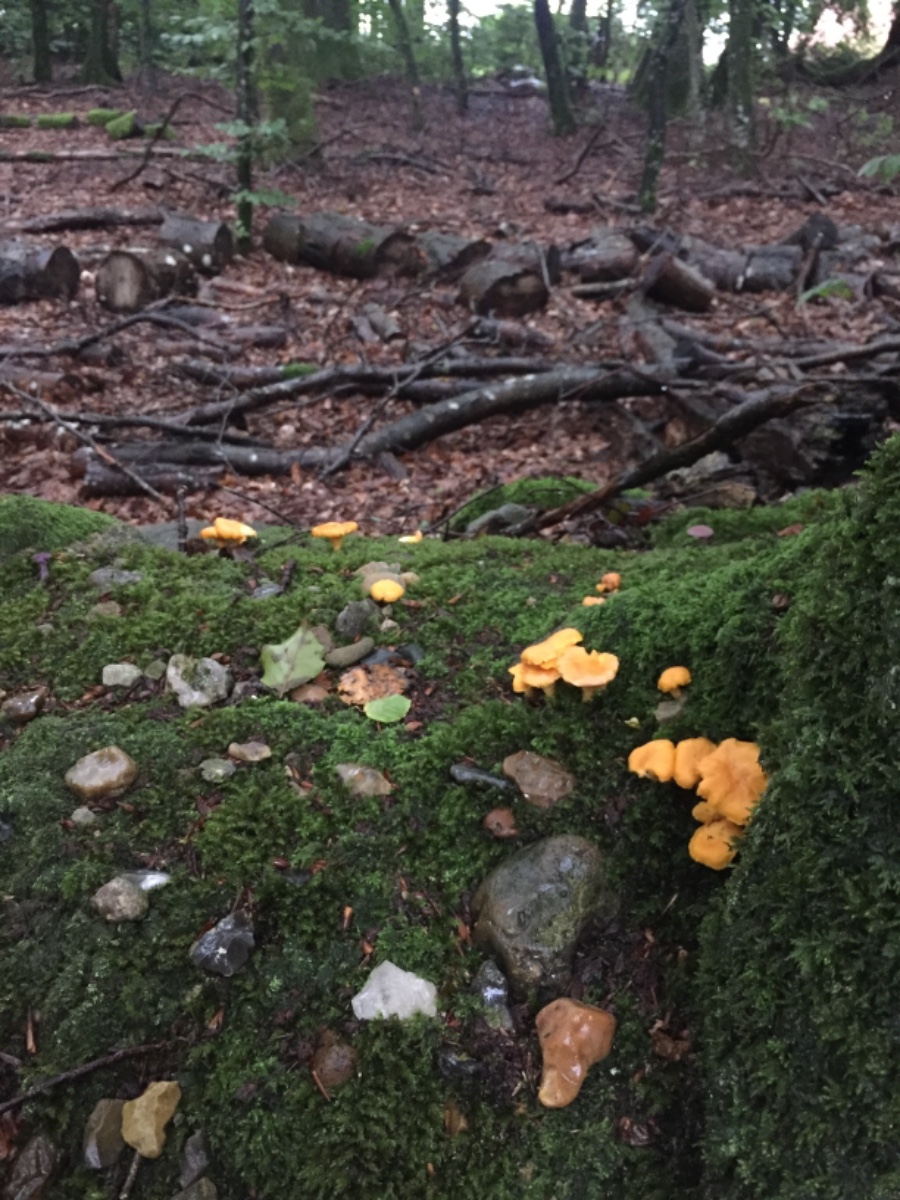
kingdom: Fungi
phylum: Basidiomycota
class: Agaricomycetes
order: Cantharellales
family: Hydnaceae
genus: Cantharellus
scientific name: Cantharellus cibarius
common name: almindelig kantarel
